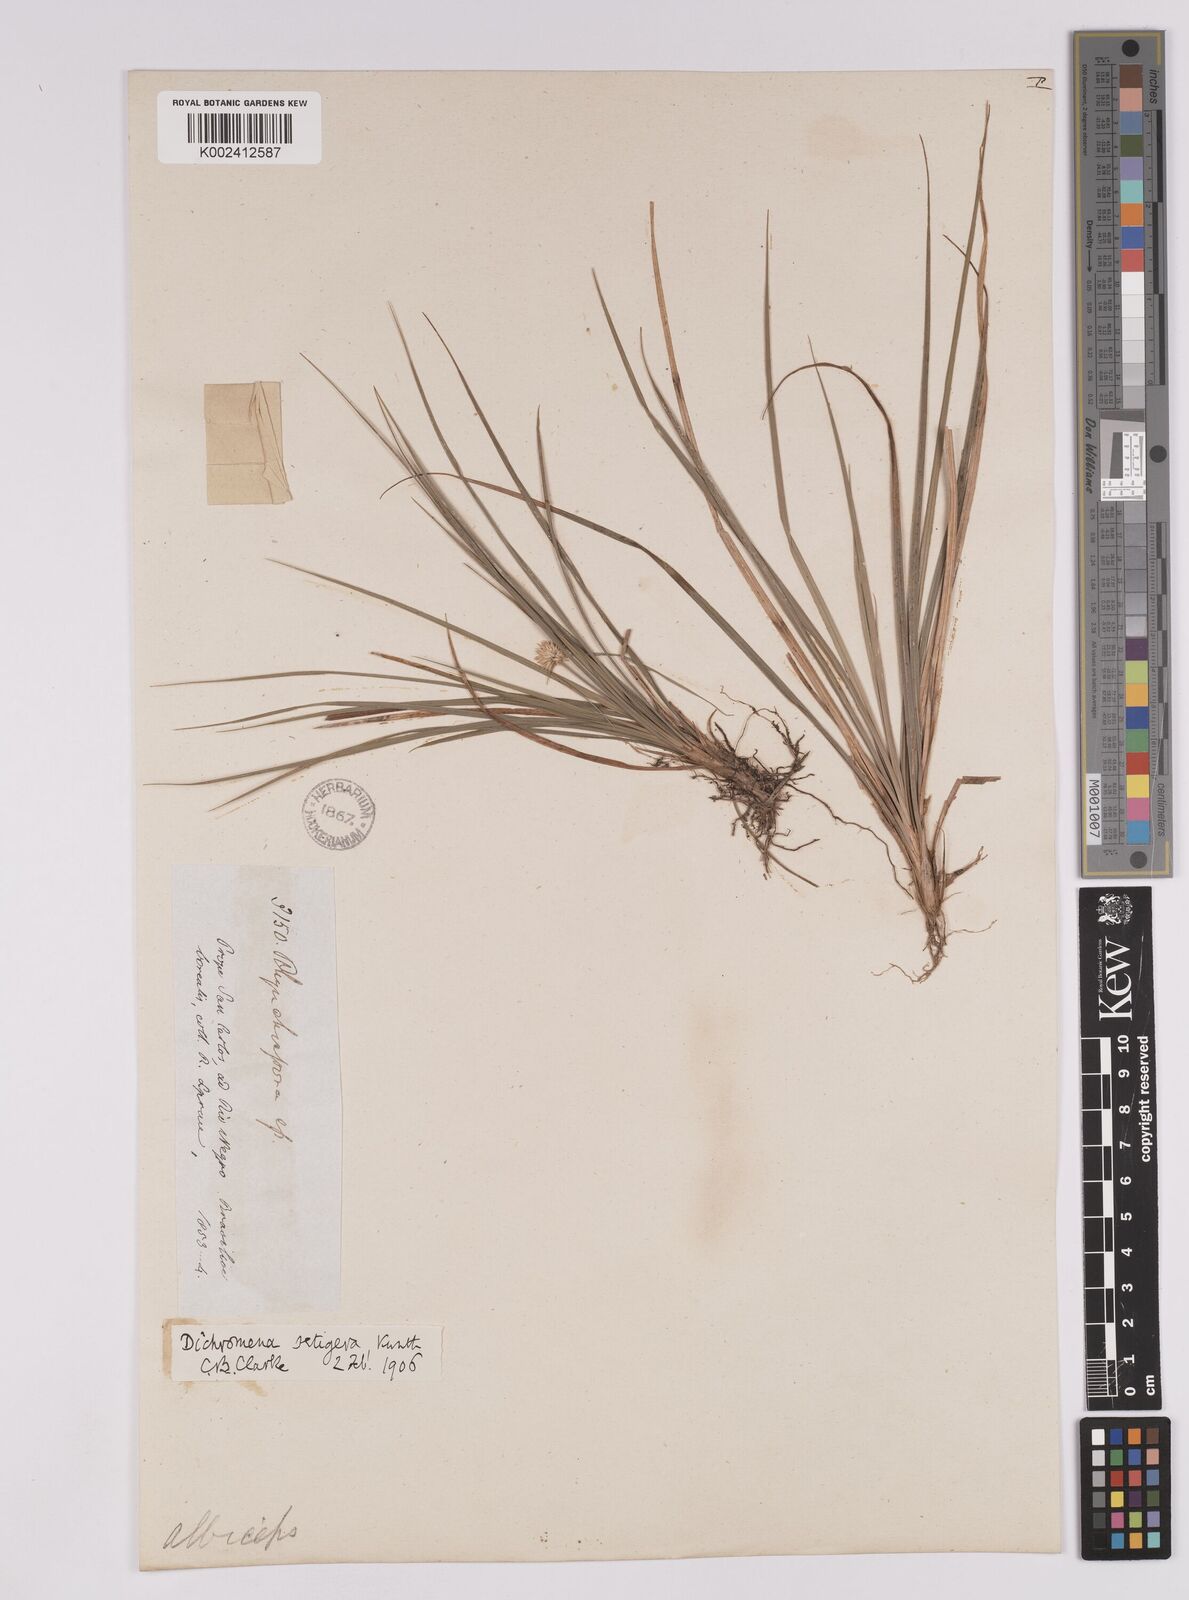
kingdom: Plantae
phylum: Tracheophyta
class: Liliopsida
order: Poales
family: Cyperaceae
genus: Rhynchospora
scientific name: Rhynchospora setigera
